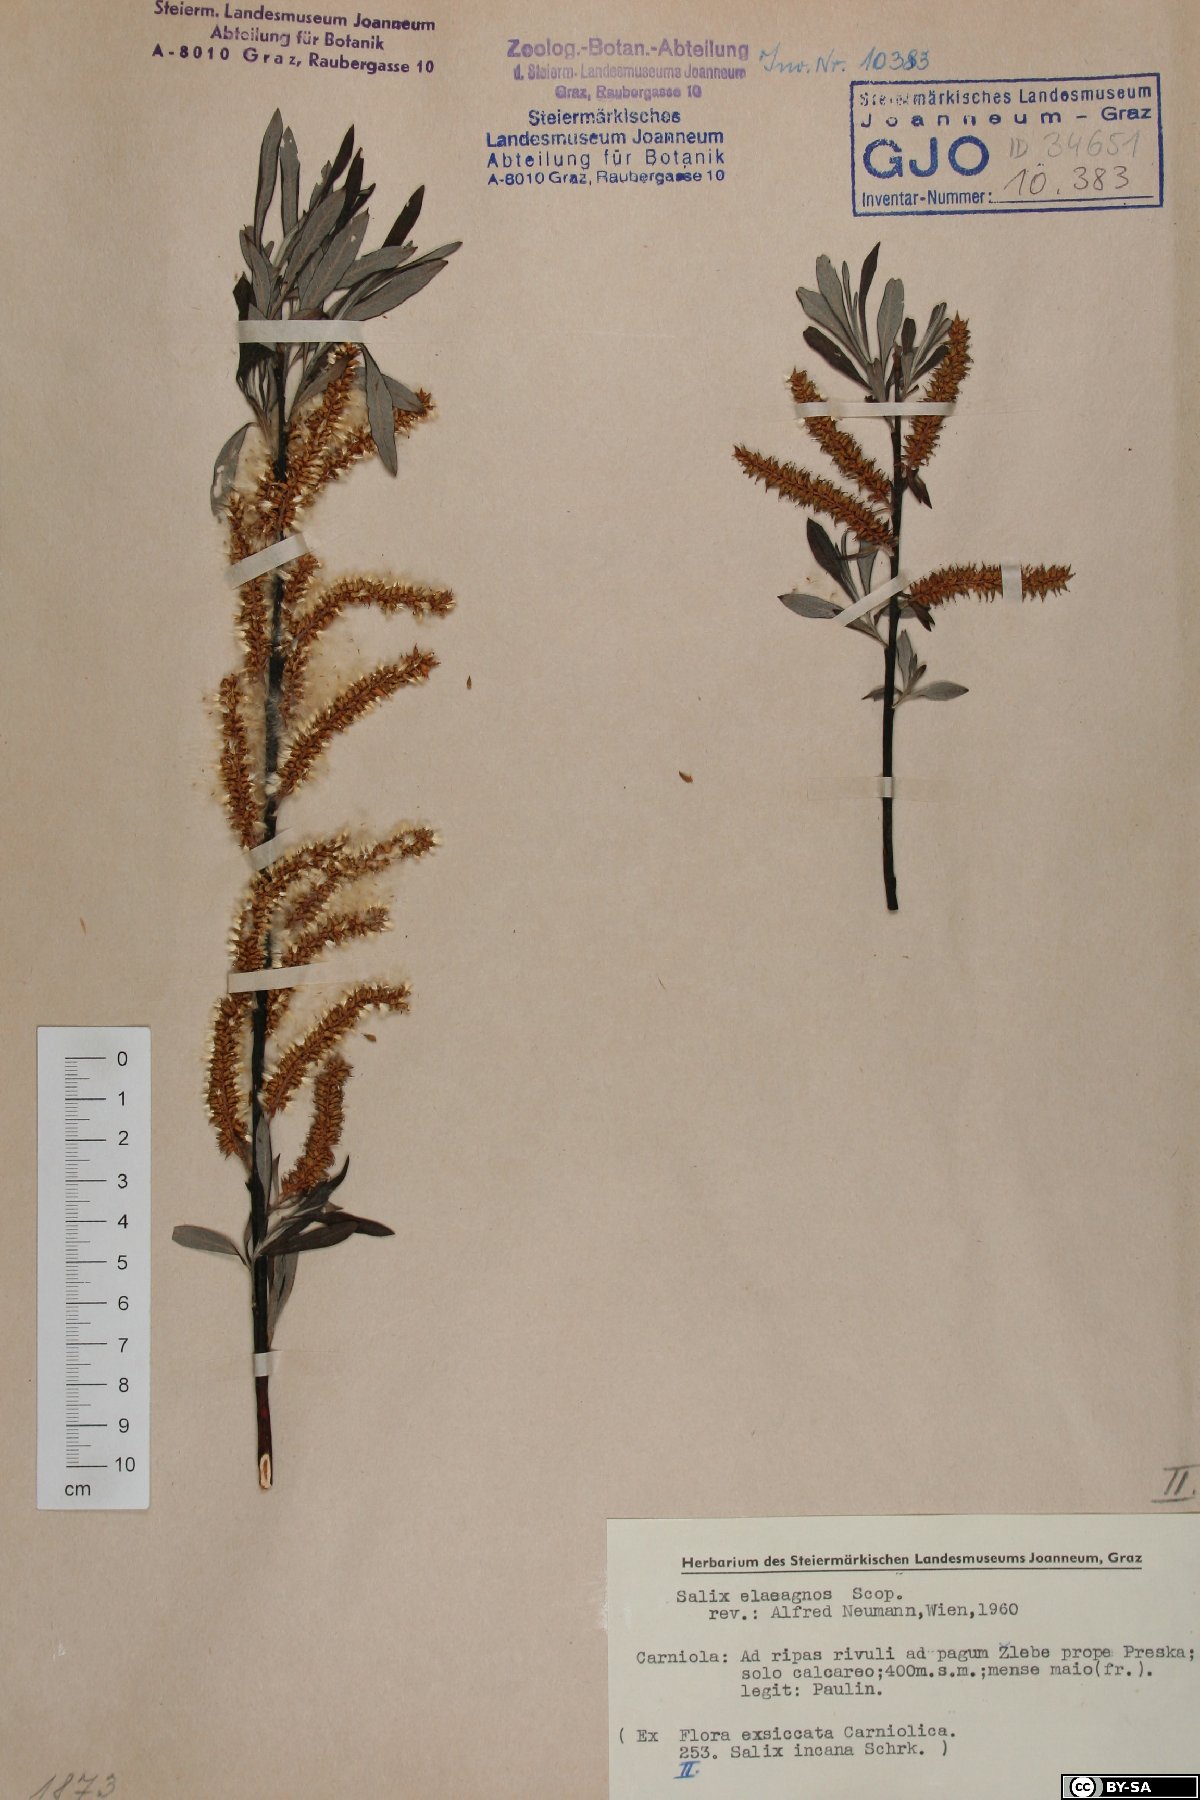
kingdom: Plantae
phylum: Tracheophyta
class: Magnoliopsida
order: Malpighiales
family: Salicaceae
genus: Salix
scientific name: Salix eleagnos
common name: Elaeagnus willow
